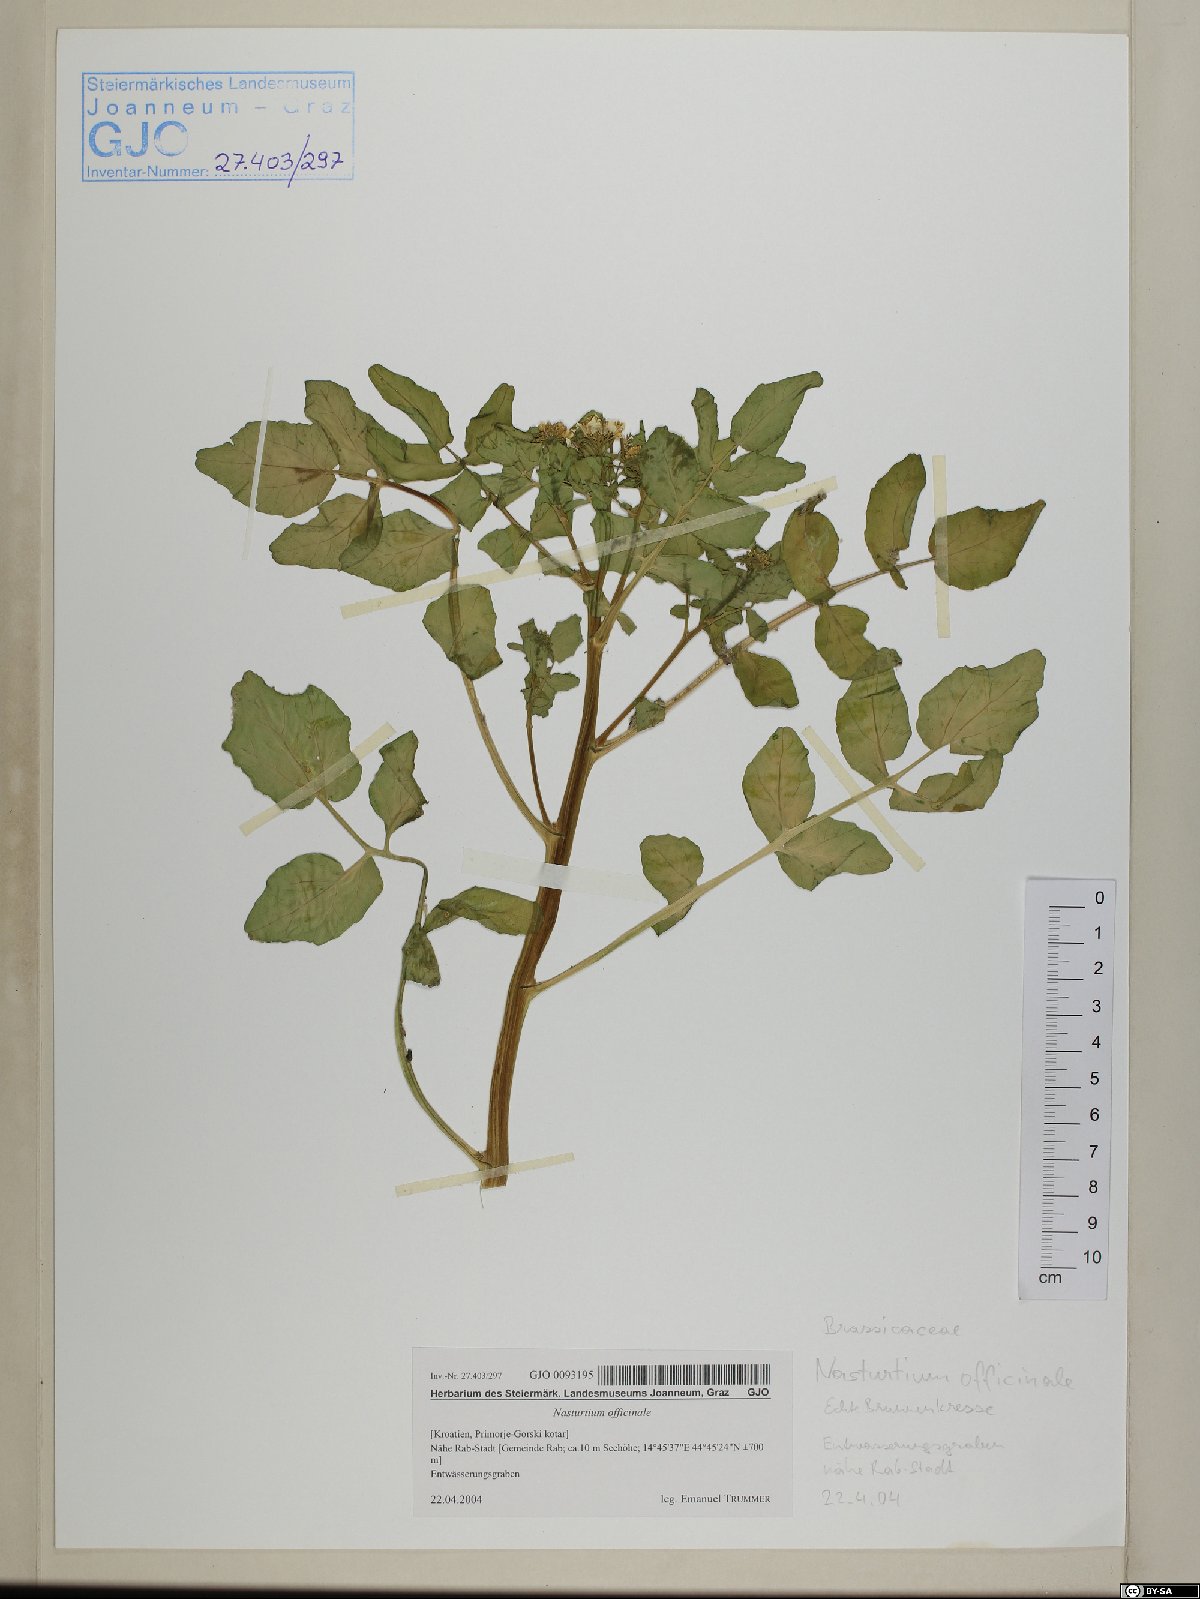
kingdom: Plantae
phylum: Tracheophyta
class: Magnoliopsida
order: Brassicales
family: Brassicaceae
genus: Nasturtium
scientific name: Nasturtium officinale
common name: Watercress
